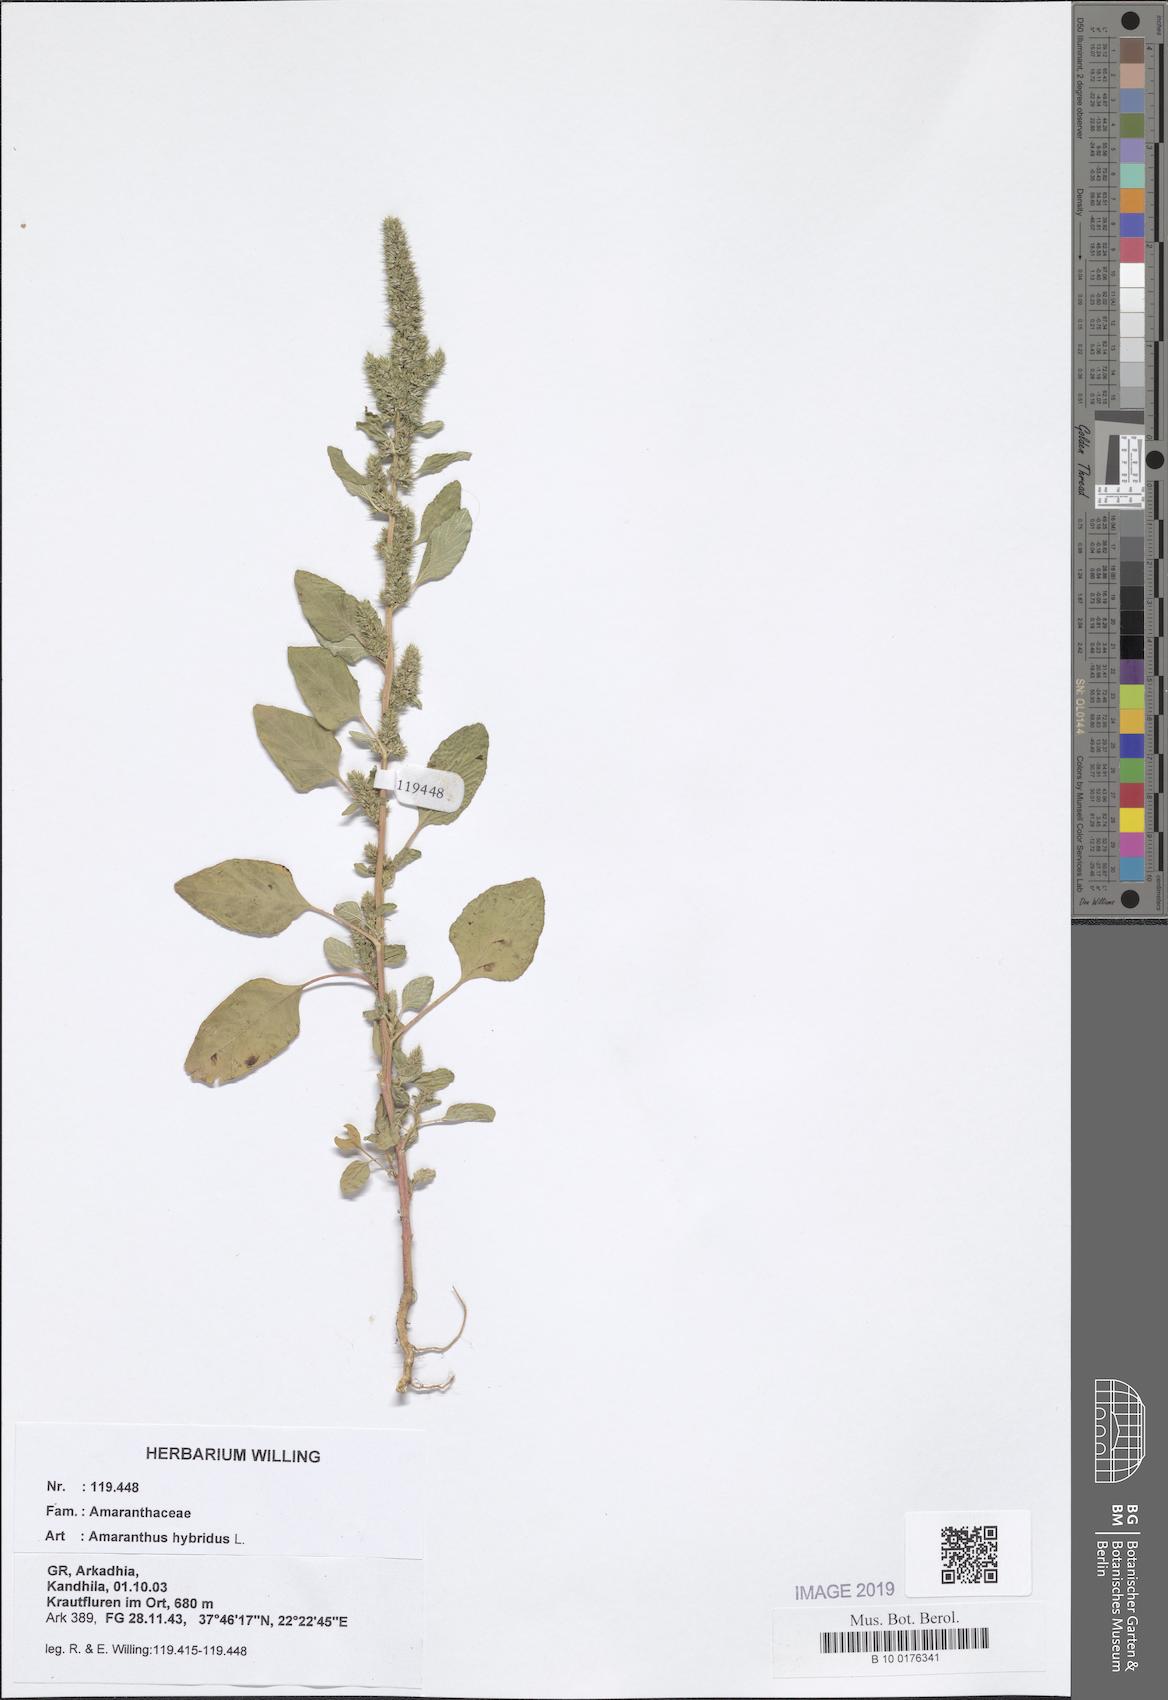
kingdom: Plantae
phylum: Tracheophyta
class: Magnoliopsida
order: Caryophyllales
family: Amaranthaceae
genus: Amaranthus
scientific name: Amaranthus hybridus
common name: Green amaranth
